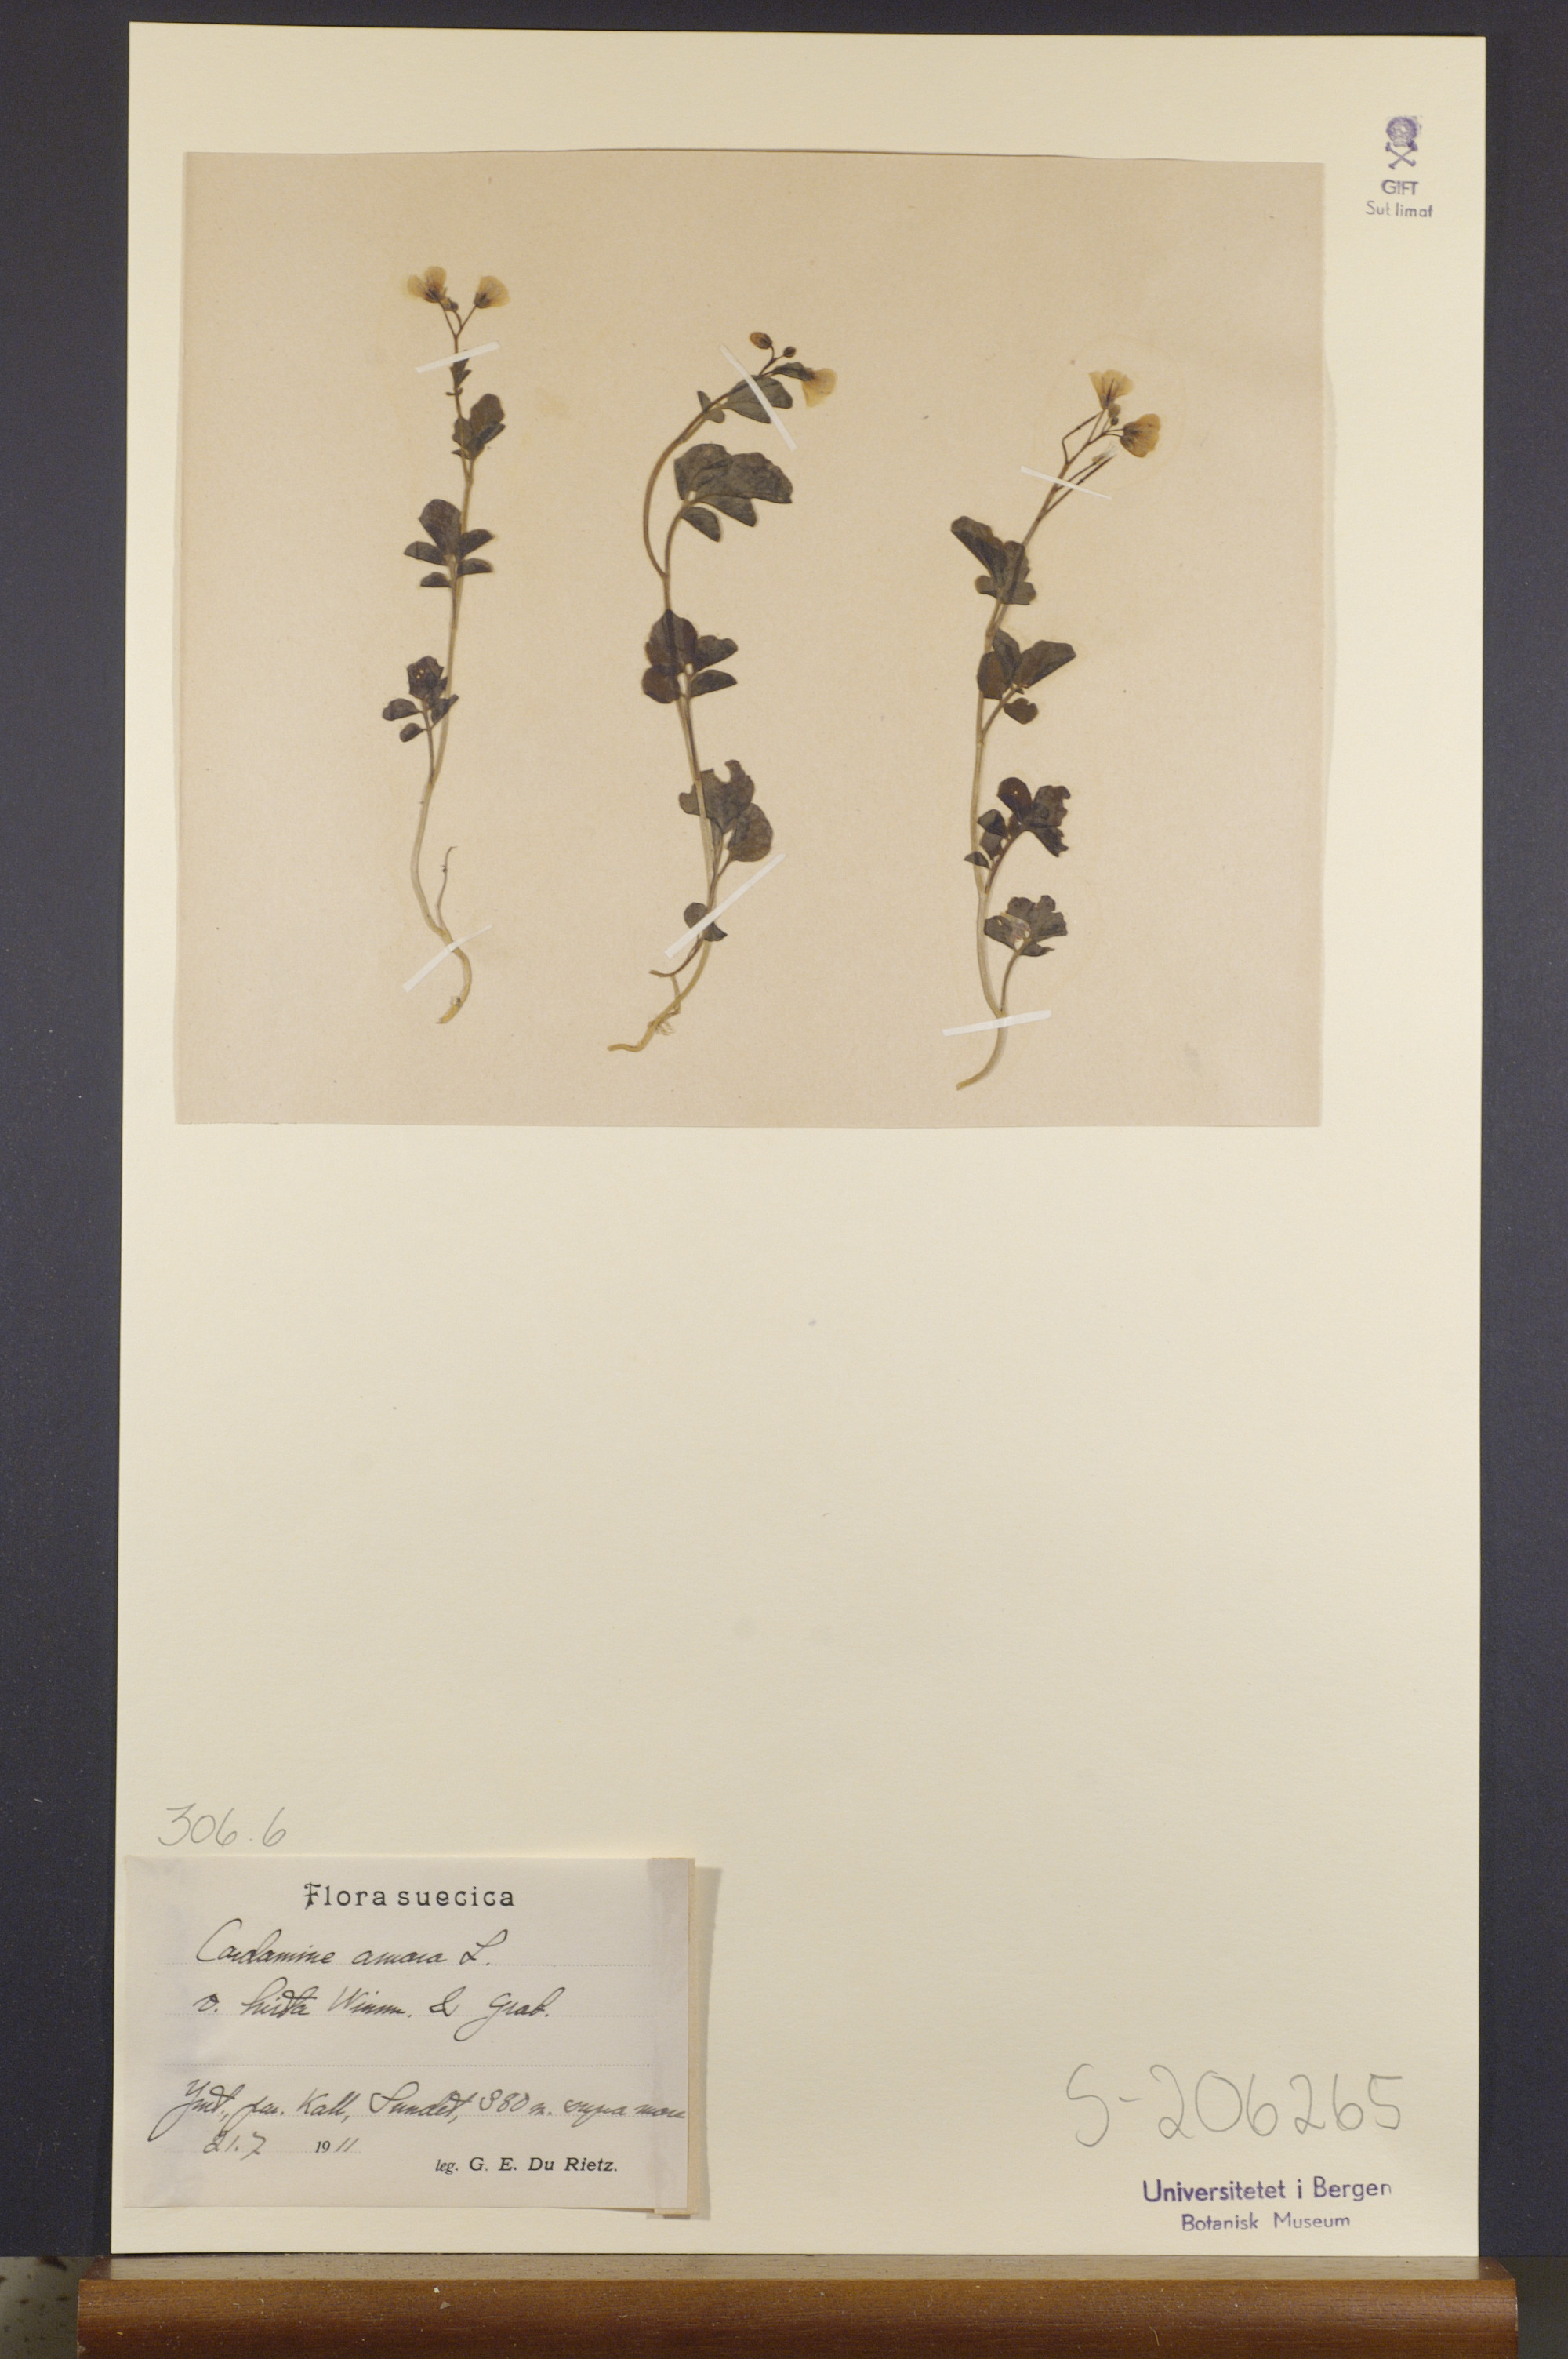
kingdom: Plantae
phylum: Tracheophyta
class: Magnoliopsida
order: Brassicales
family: Brassicaceae
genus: Cardamine
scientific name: Cardamine amara
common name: Large bitter-cress
